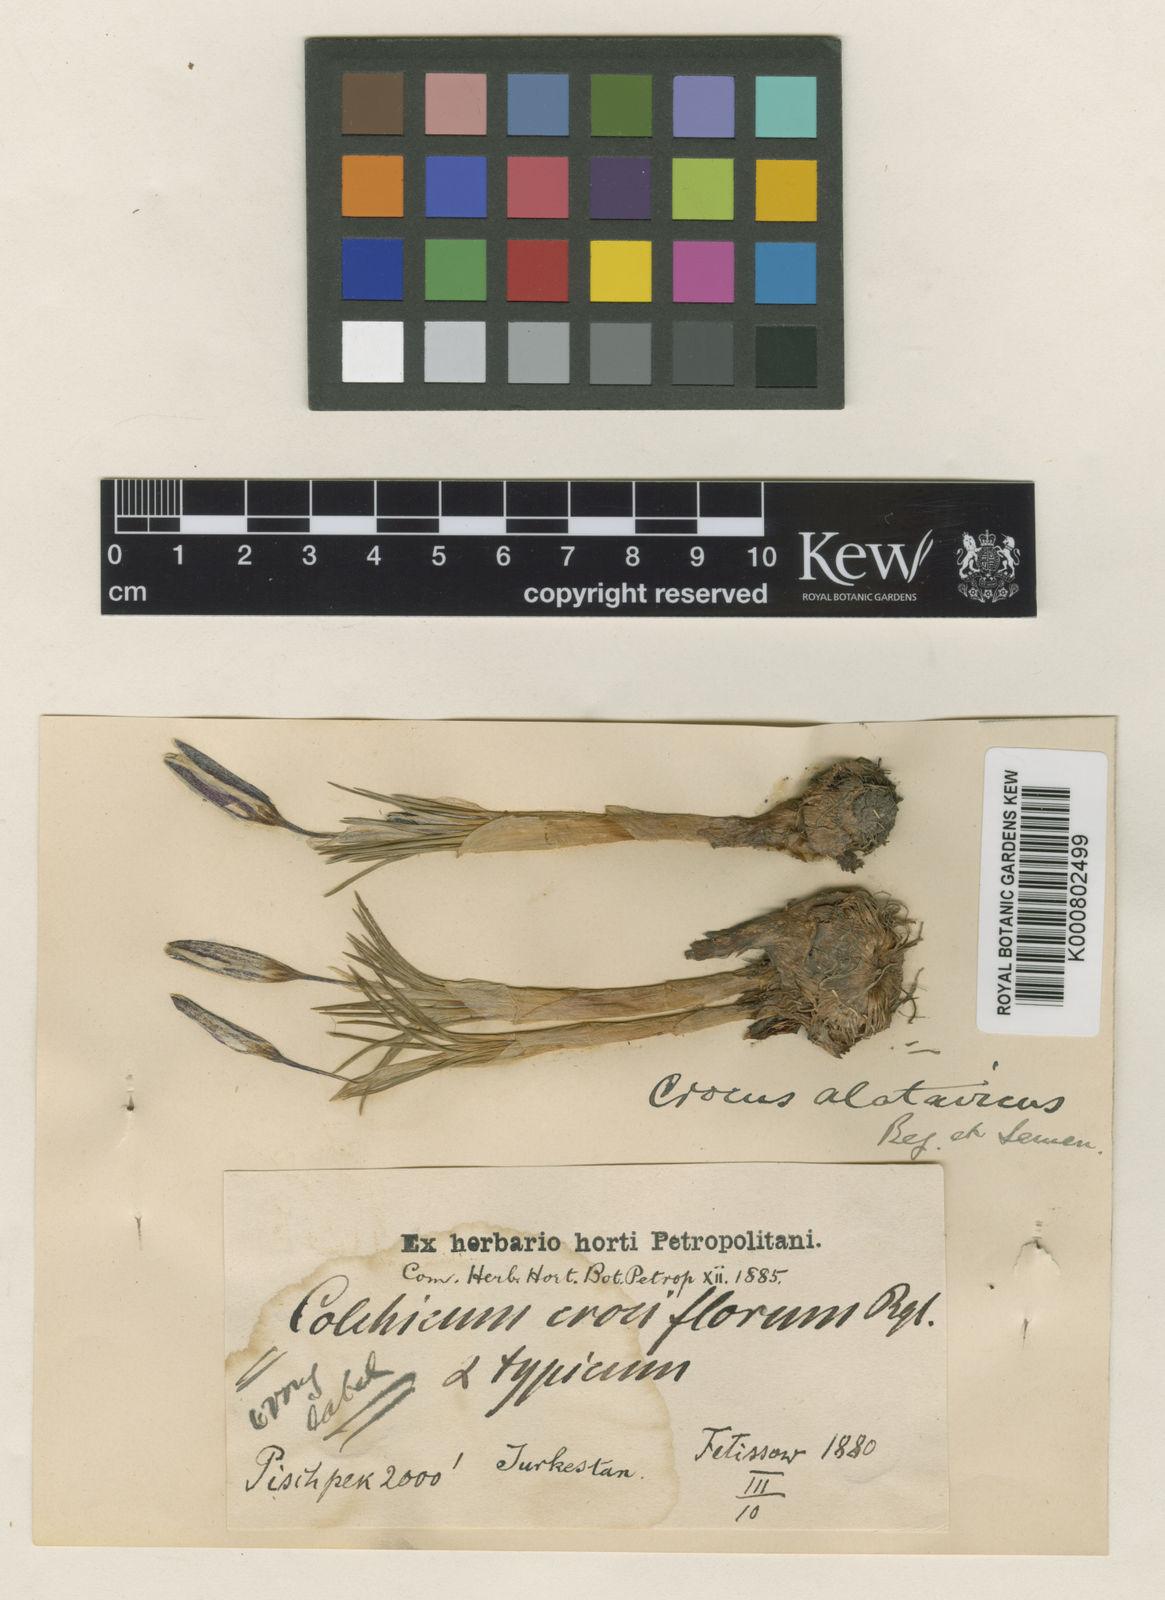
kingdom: Plantae
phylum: Tracheophyta
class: Liliopsida
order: Asparagales
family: Iridaceae
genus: Crocus
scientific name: Crocus alatavicus
